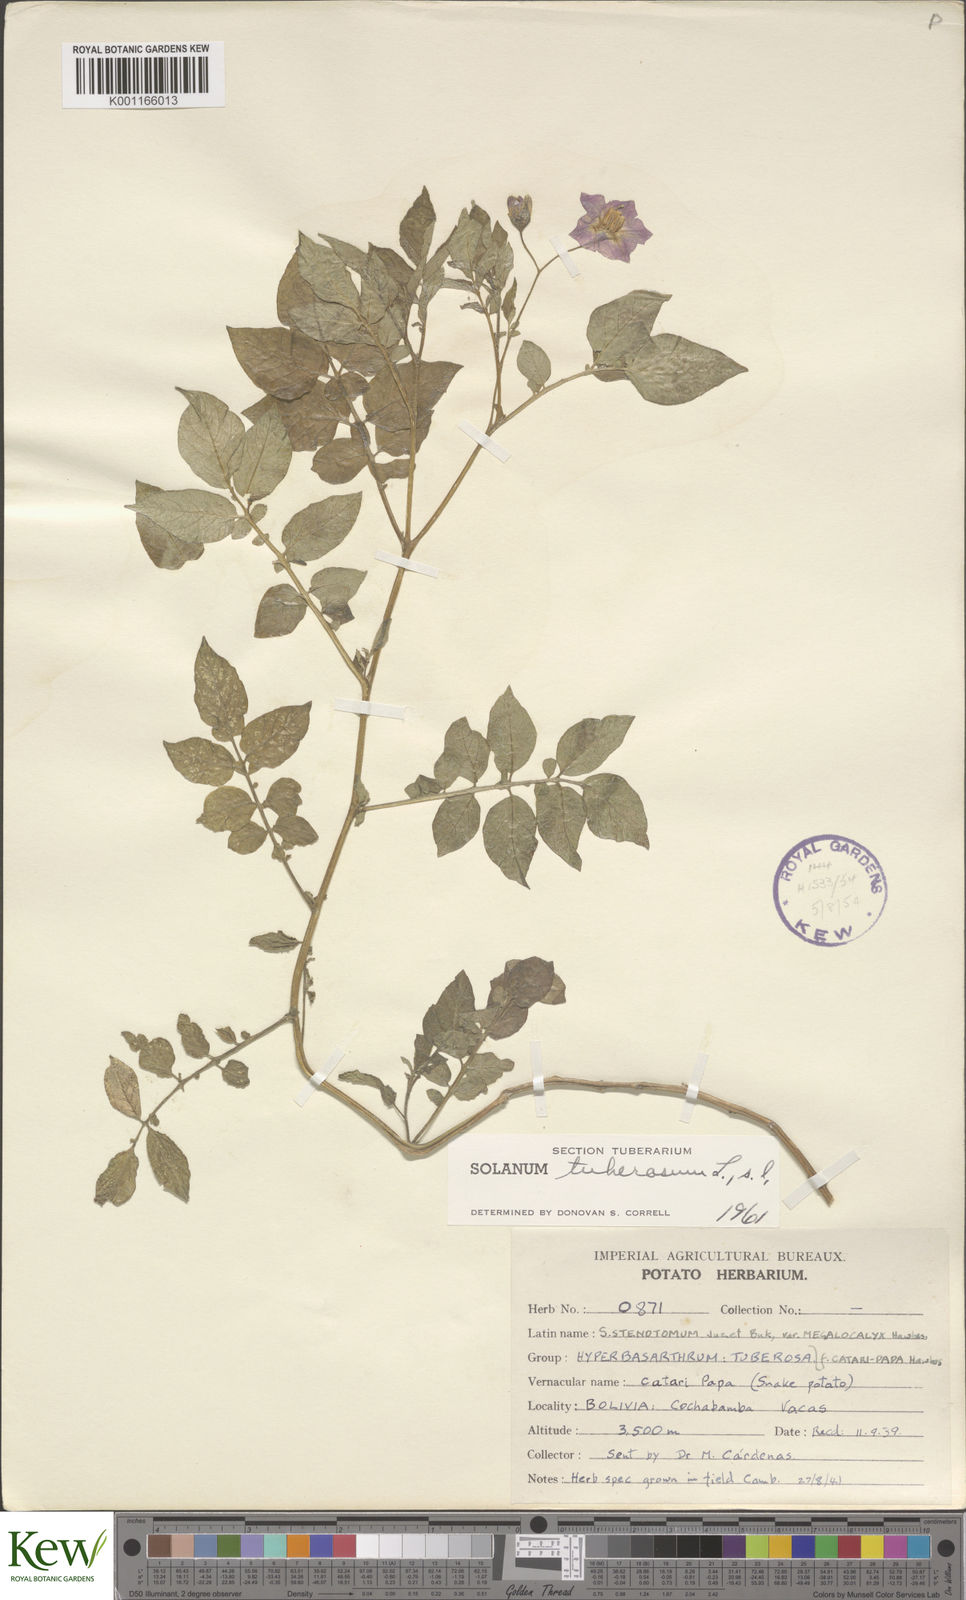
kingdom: Plantae
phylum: Tracheophyta
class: Magnoliopsida
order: Solanales
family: Solanaceae
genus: Solanum
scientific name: Solanum tuberosum
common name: Potato
